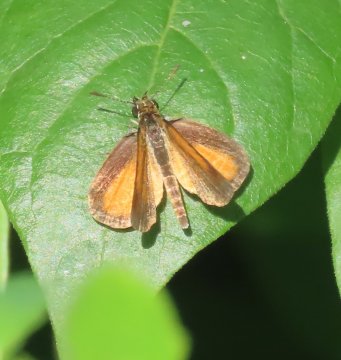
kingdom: Animalia
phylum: Arthropoda
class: Insecta
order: Lepidoptera
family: Hesperiidae
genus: Ancyloxypha
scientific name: Ancyloxypha numitor
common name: Least Skipper
